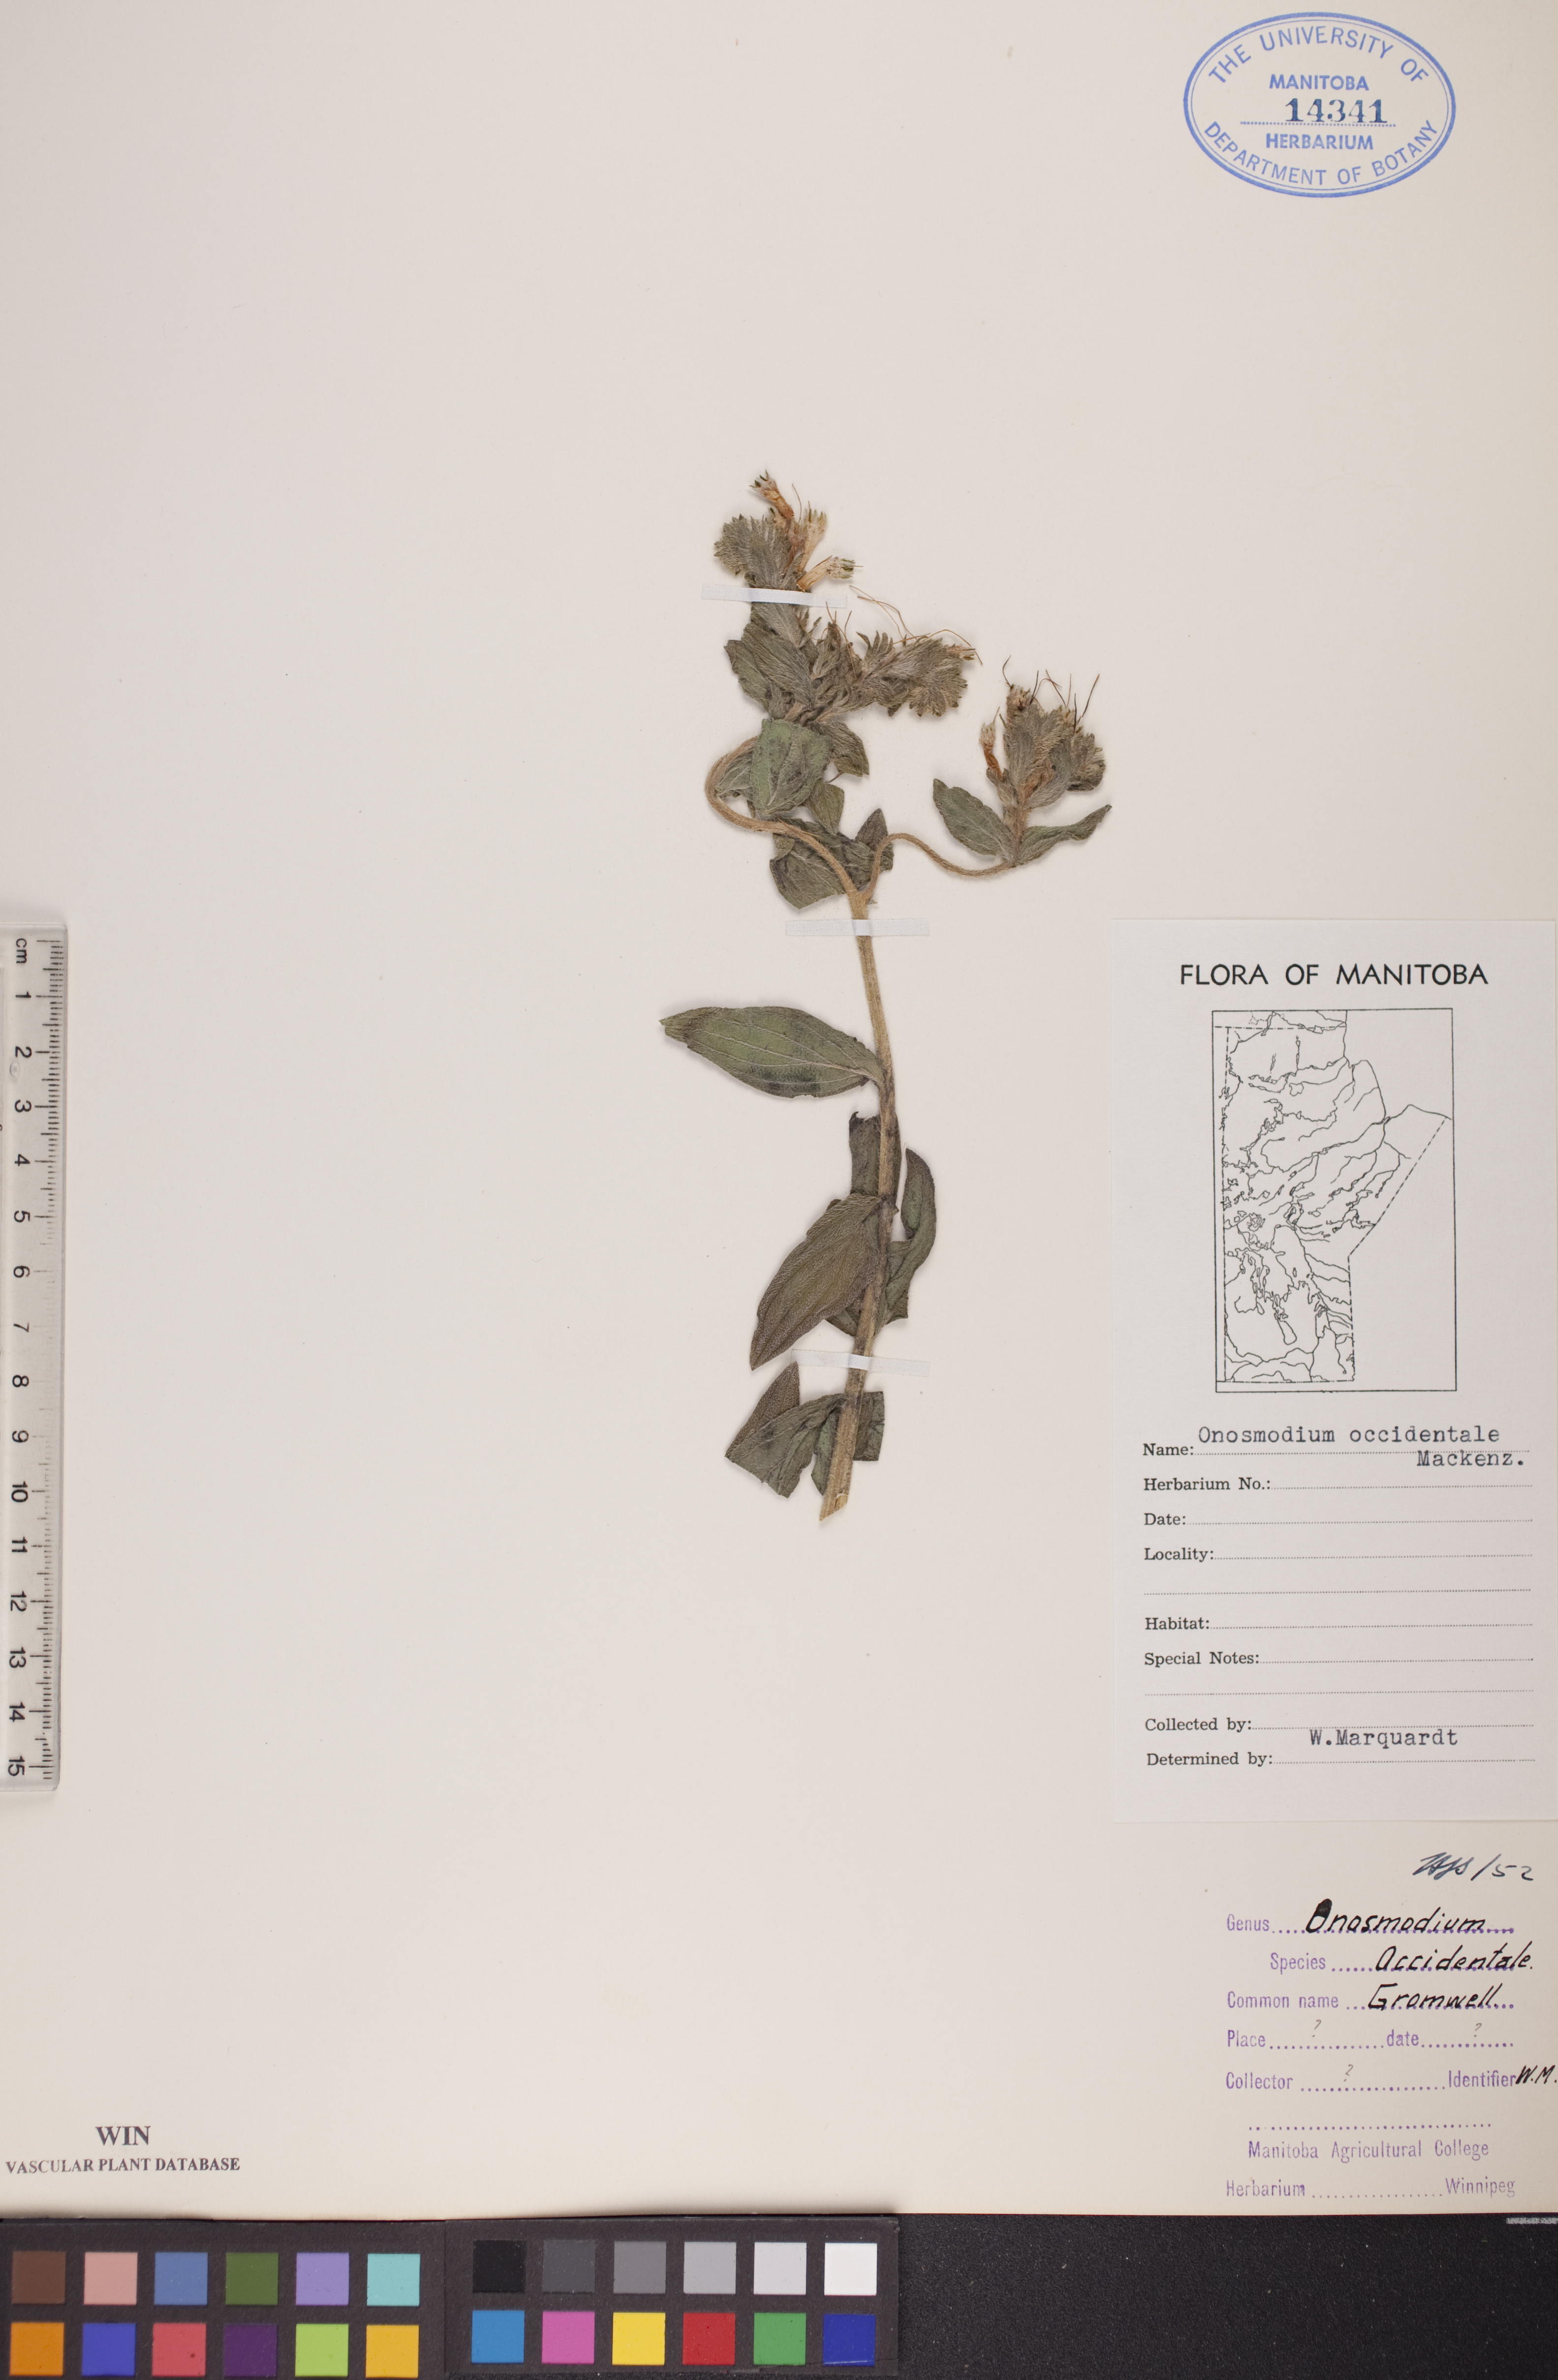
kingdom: Plantae
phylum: Tracheophyta
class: Magnoliopsida
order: Boraginales
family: Boraginaceae
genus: Lithospermum
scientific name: Lithospermum occidentale
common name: Western false gromwell
